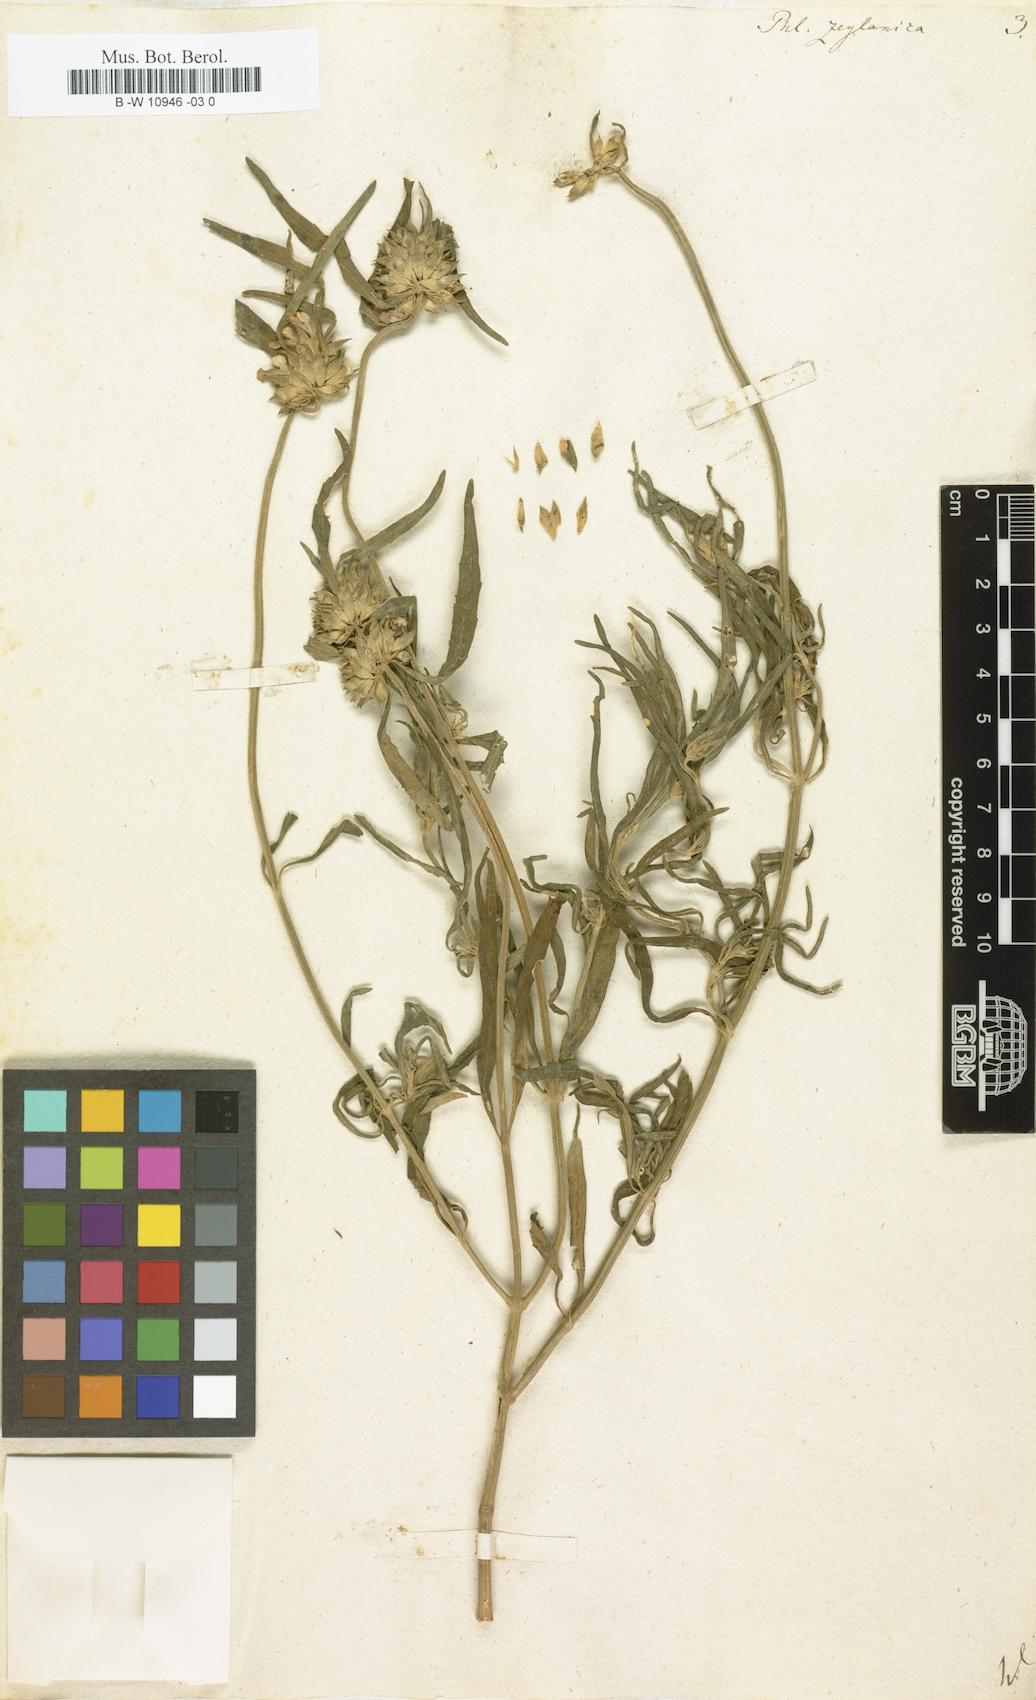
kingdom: Plantae
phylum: Tracheophyta
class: Magnoliopsida
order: Lamiales
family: Lamiaceae
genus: Phlomis
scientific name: Phlomis zeylanica
